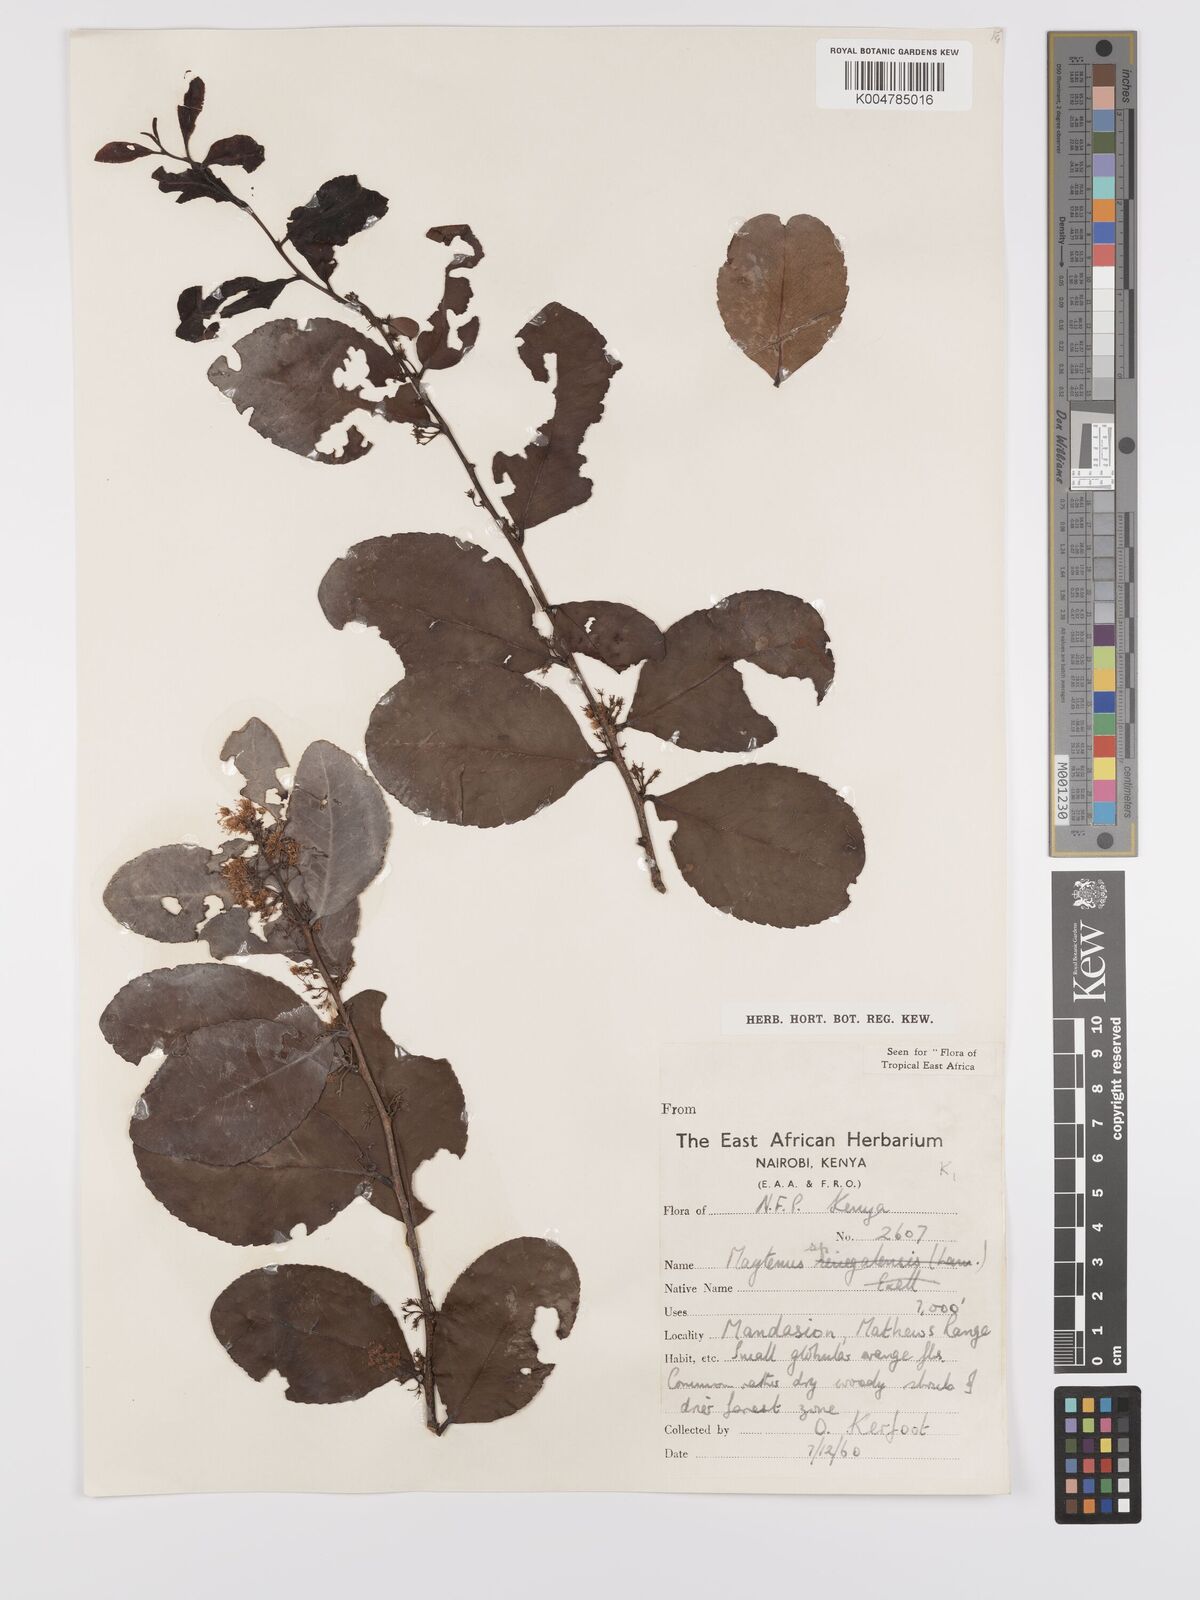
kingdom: Plantae
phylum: Tracheophyta
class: Magnoliopsida
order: Celastrales
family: Celastraceae
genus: Gymnosporia
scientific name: Gymnosporia buchananii
